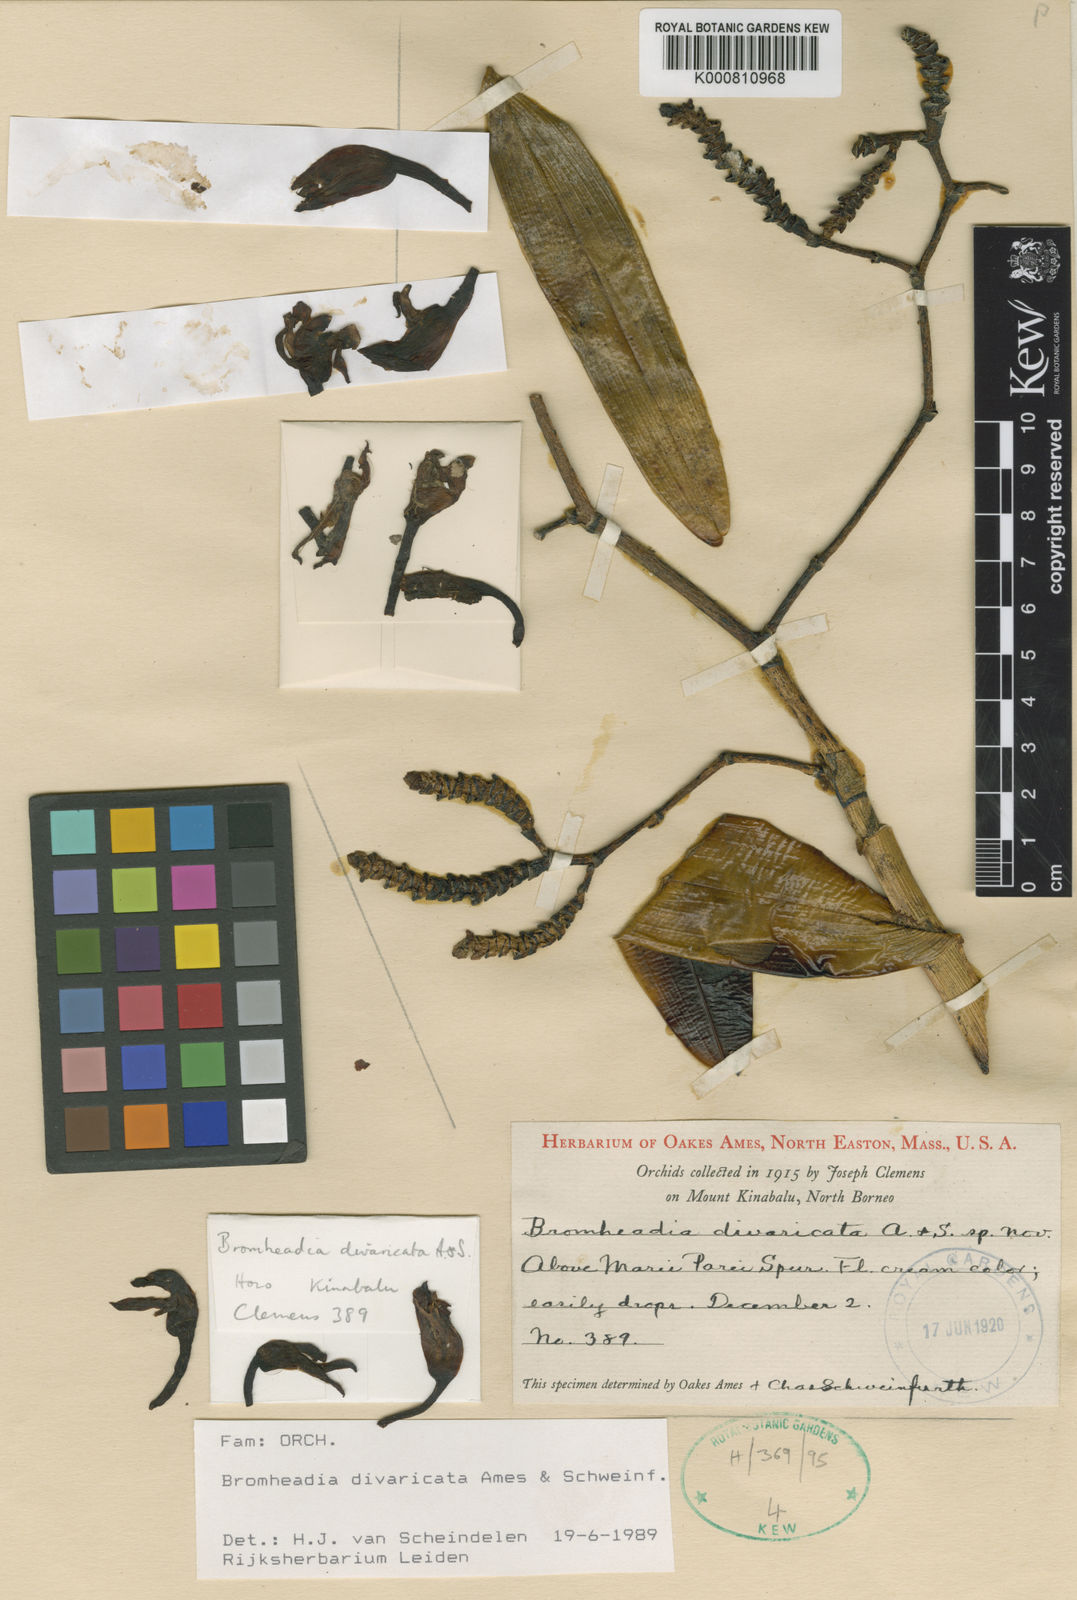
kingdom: Plantae
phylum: Tracheophyta
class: Liliopsida
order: Asparagales
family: Orchidaceae
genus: Bromheadia
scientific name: Bromheadia divaricata
